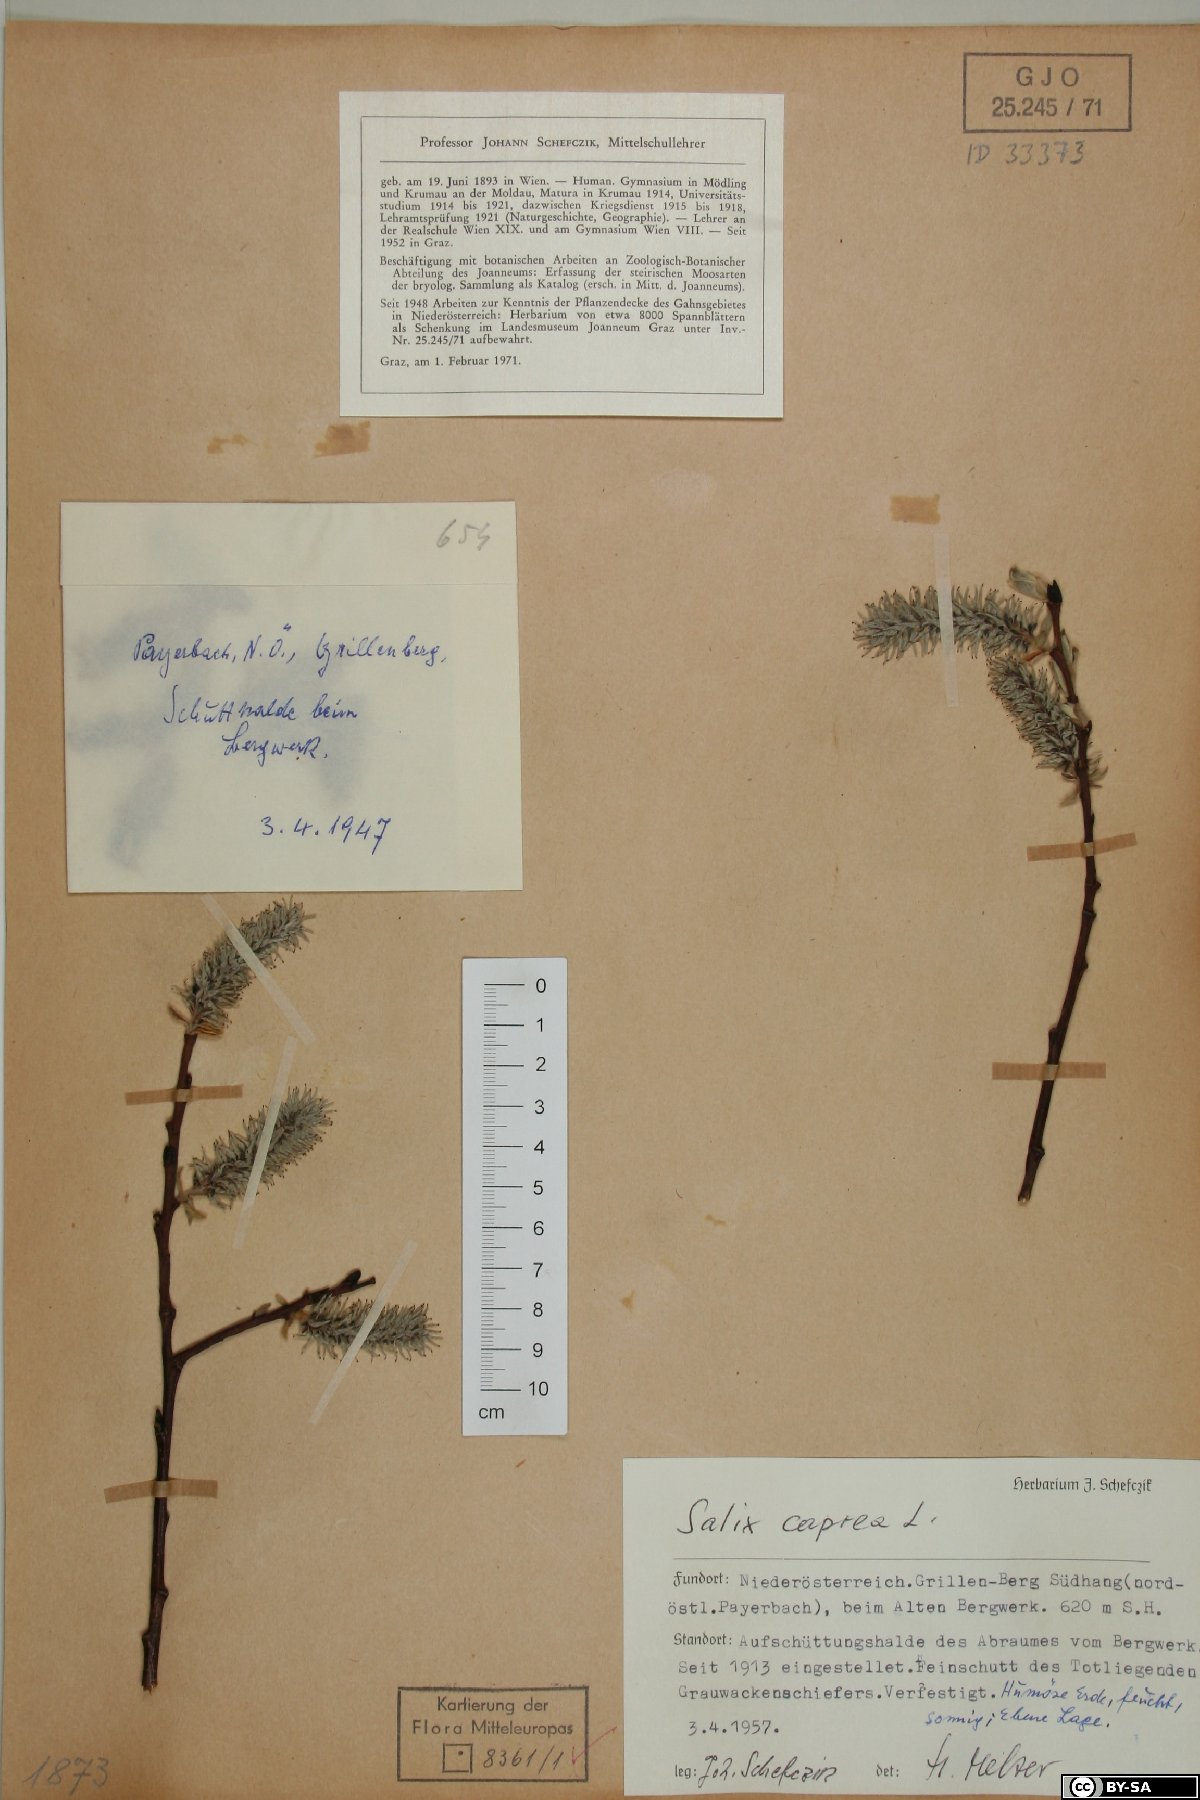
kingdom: Plantae
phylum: Tracheophyta
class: Magnoliopsida
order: Malpighiales
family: Salicaceae
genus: Salix
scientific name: Salix caprea
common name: Goat willow
